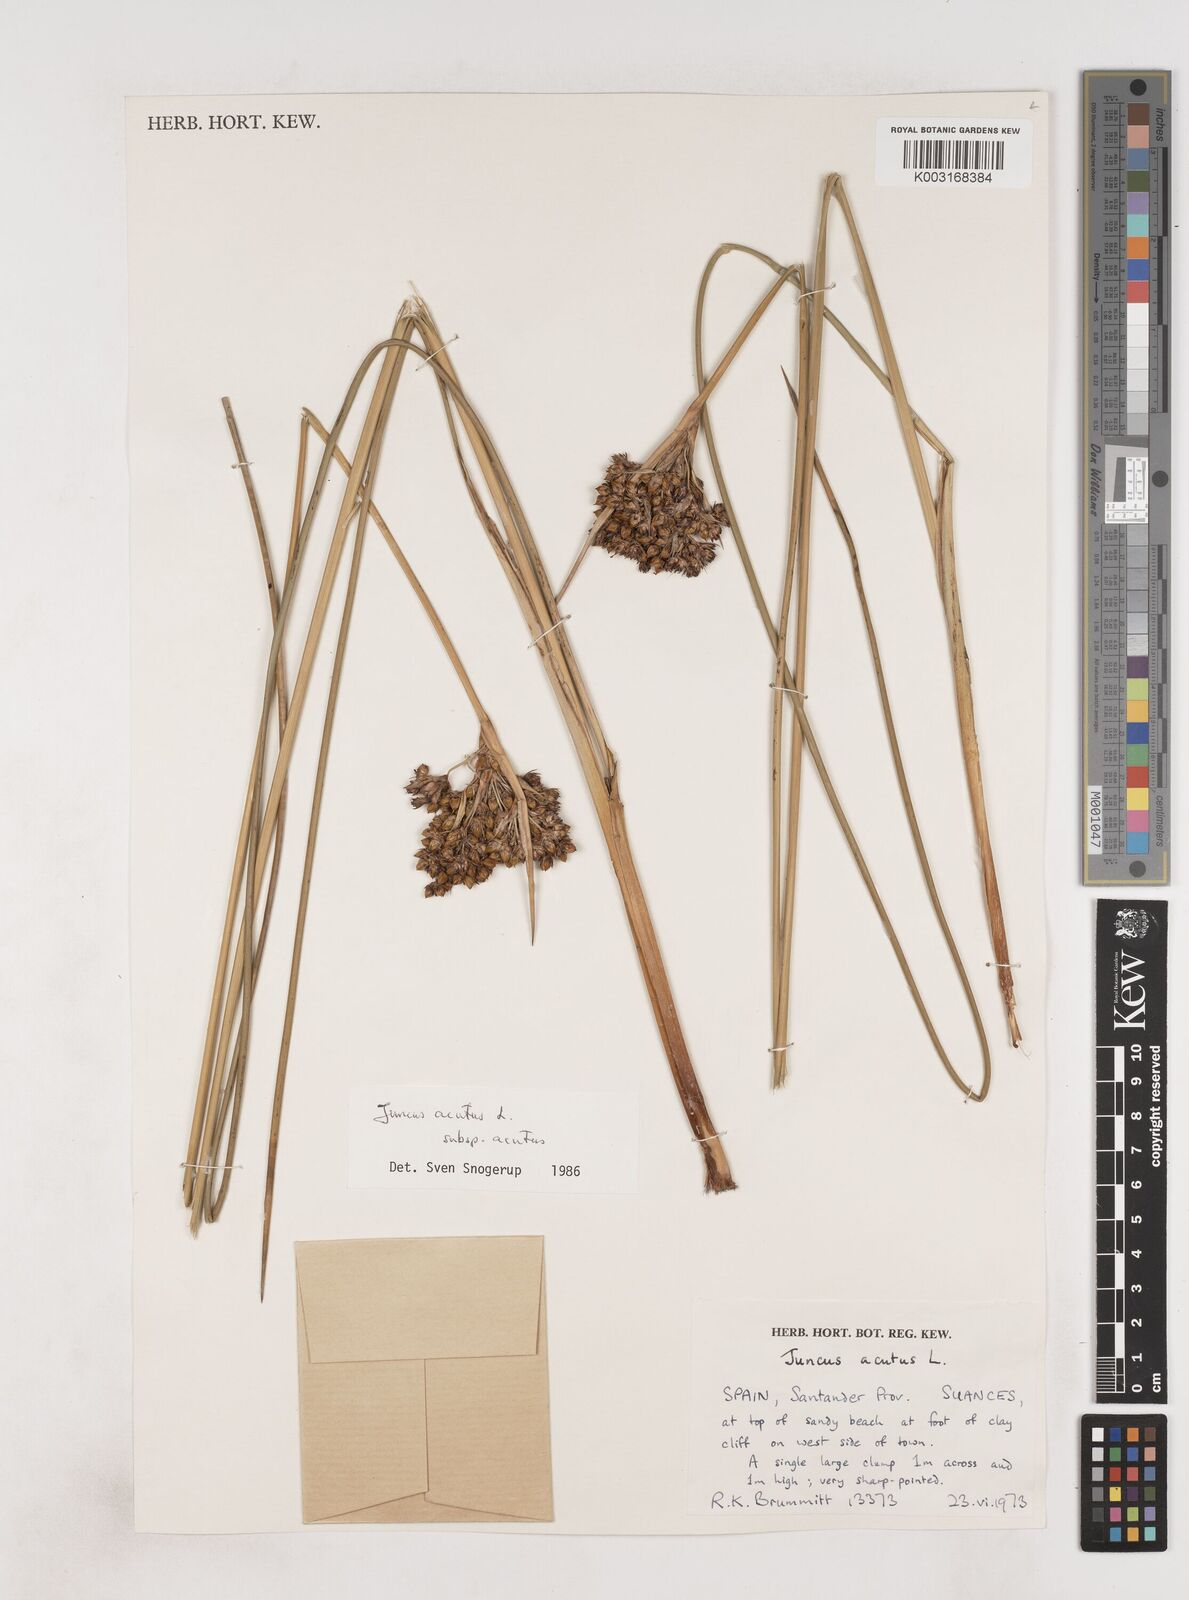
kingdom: Plantae
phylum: Tracheophyta
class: Liliopsida
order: Poales
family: Juncaceae
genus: Juncus
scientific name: Juncus acutus
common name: Sharp rush
